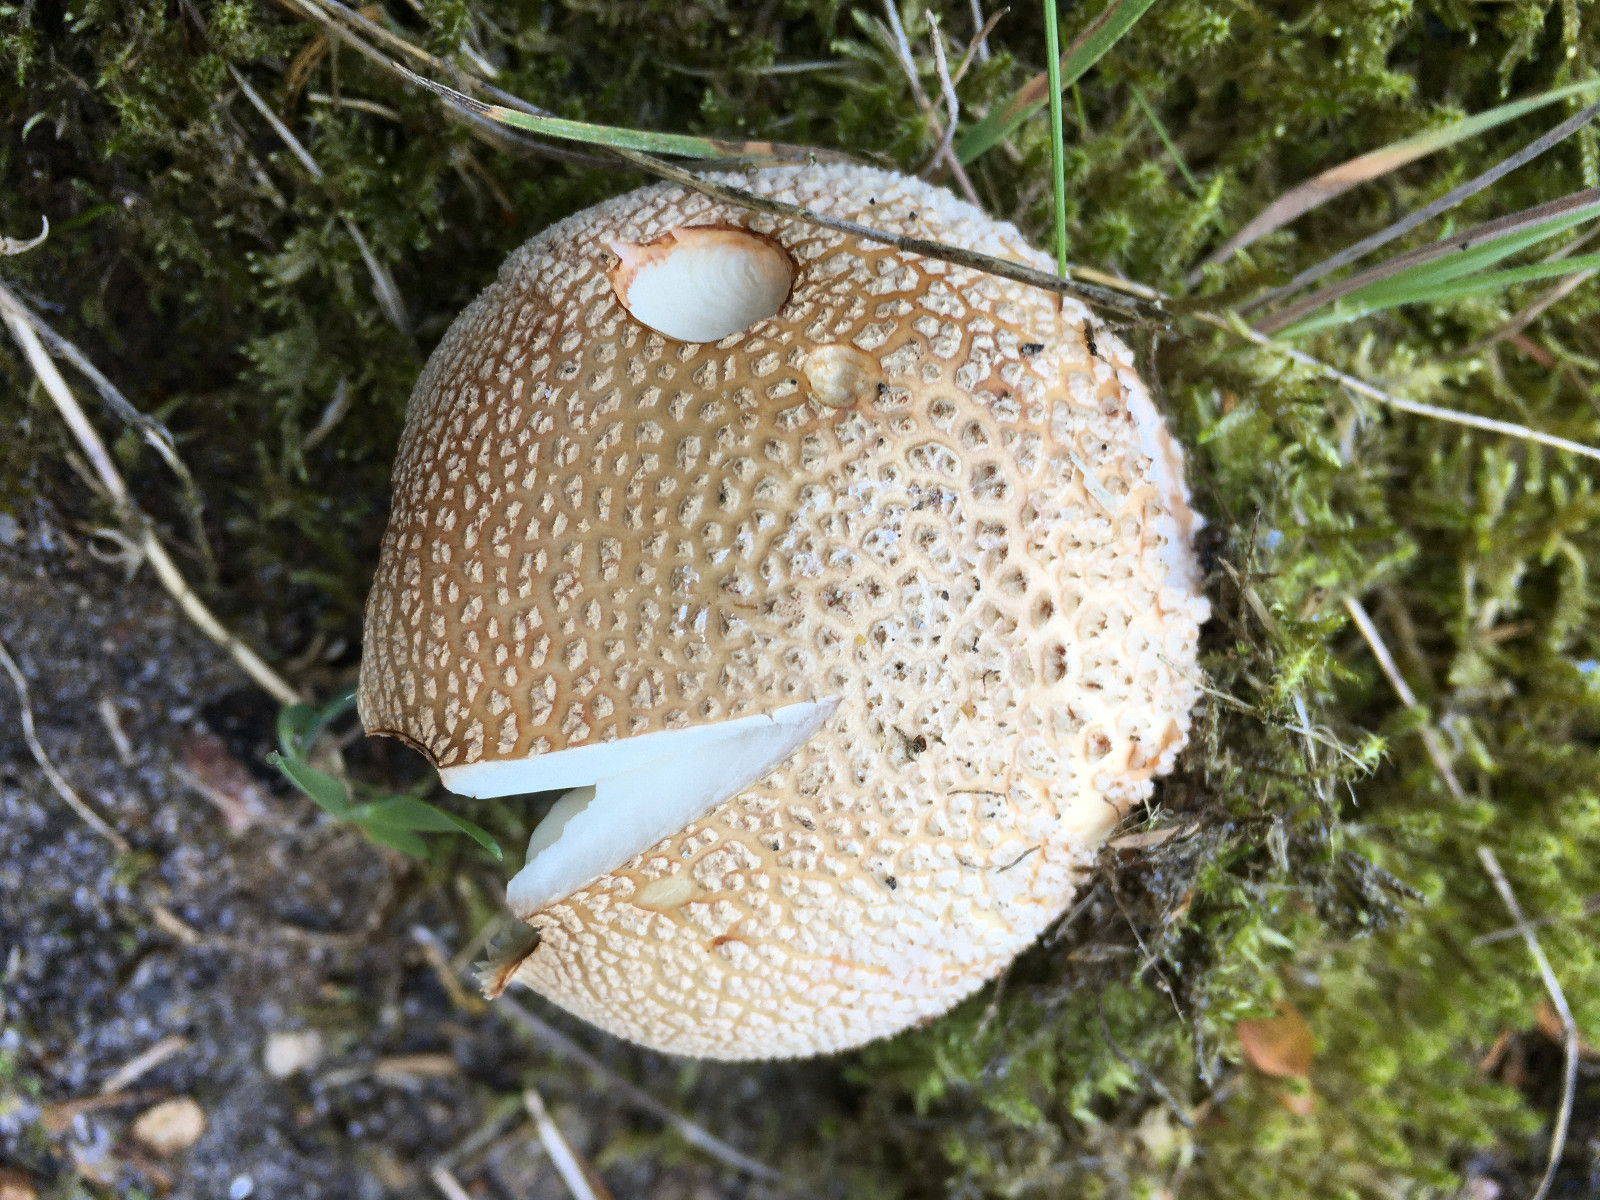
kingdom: Fungi
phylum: Basidiomycota
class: Agaricomycetes
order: Agaricales
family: Amanitaceae
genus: Amanita
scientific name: Amanita rubescens
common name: rødmende fluesvamp
